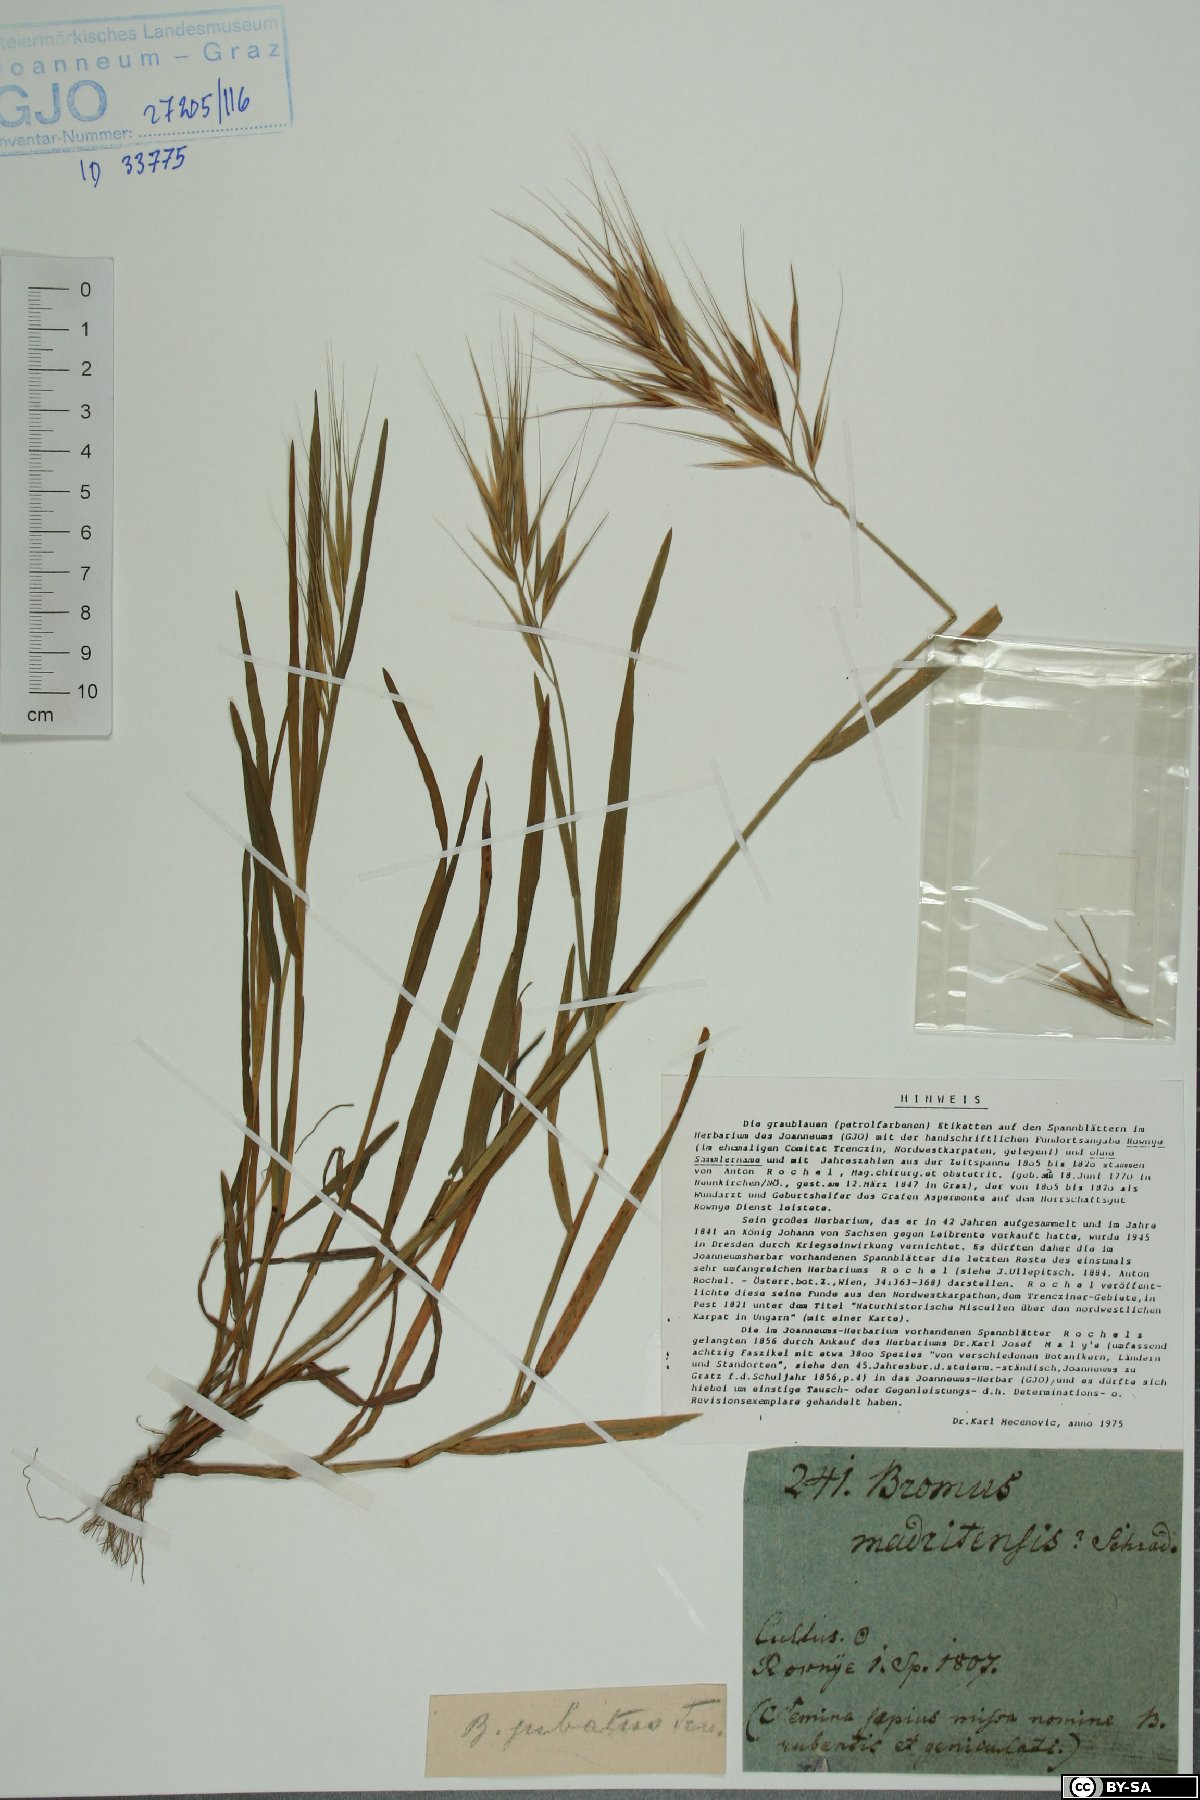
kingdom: Plantae
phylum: Tracheophyta
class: Liliopsida
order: Poales
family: Poaceae
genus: Bromus
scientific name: Bromus madritensis
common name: Compact brome
